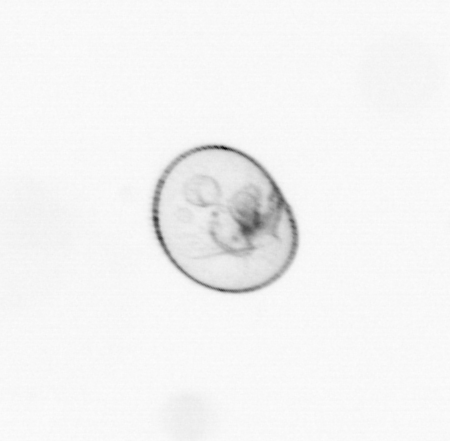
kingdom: Chromista
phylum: Myzozoa
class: Dinophyceae
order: Noctilucales
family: Noctilucaceae
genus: Noctiluca
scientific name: Noctiluca scintillans
